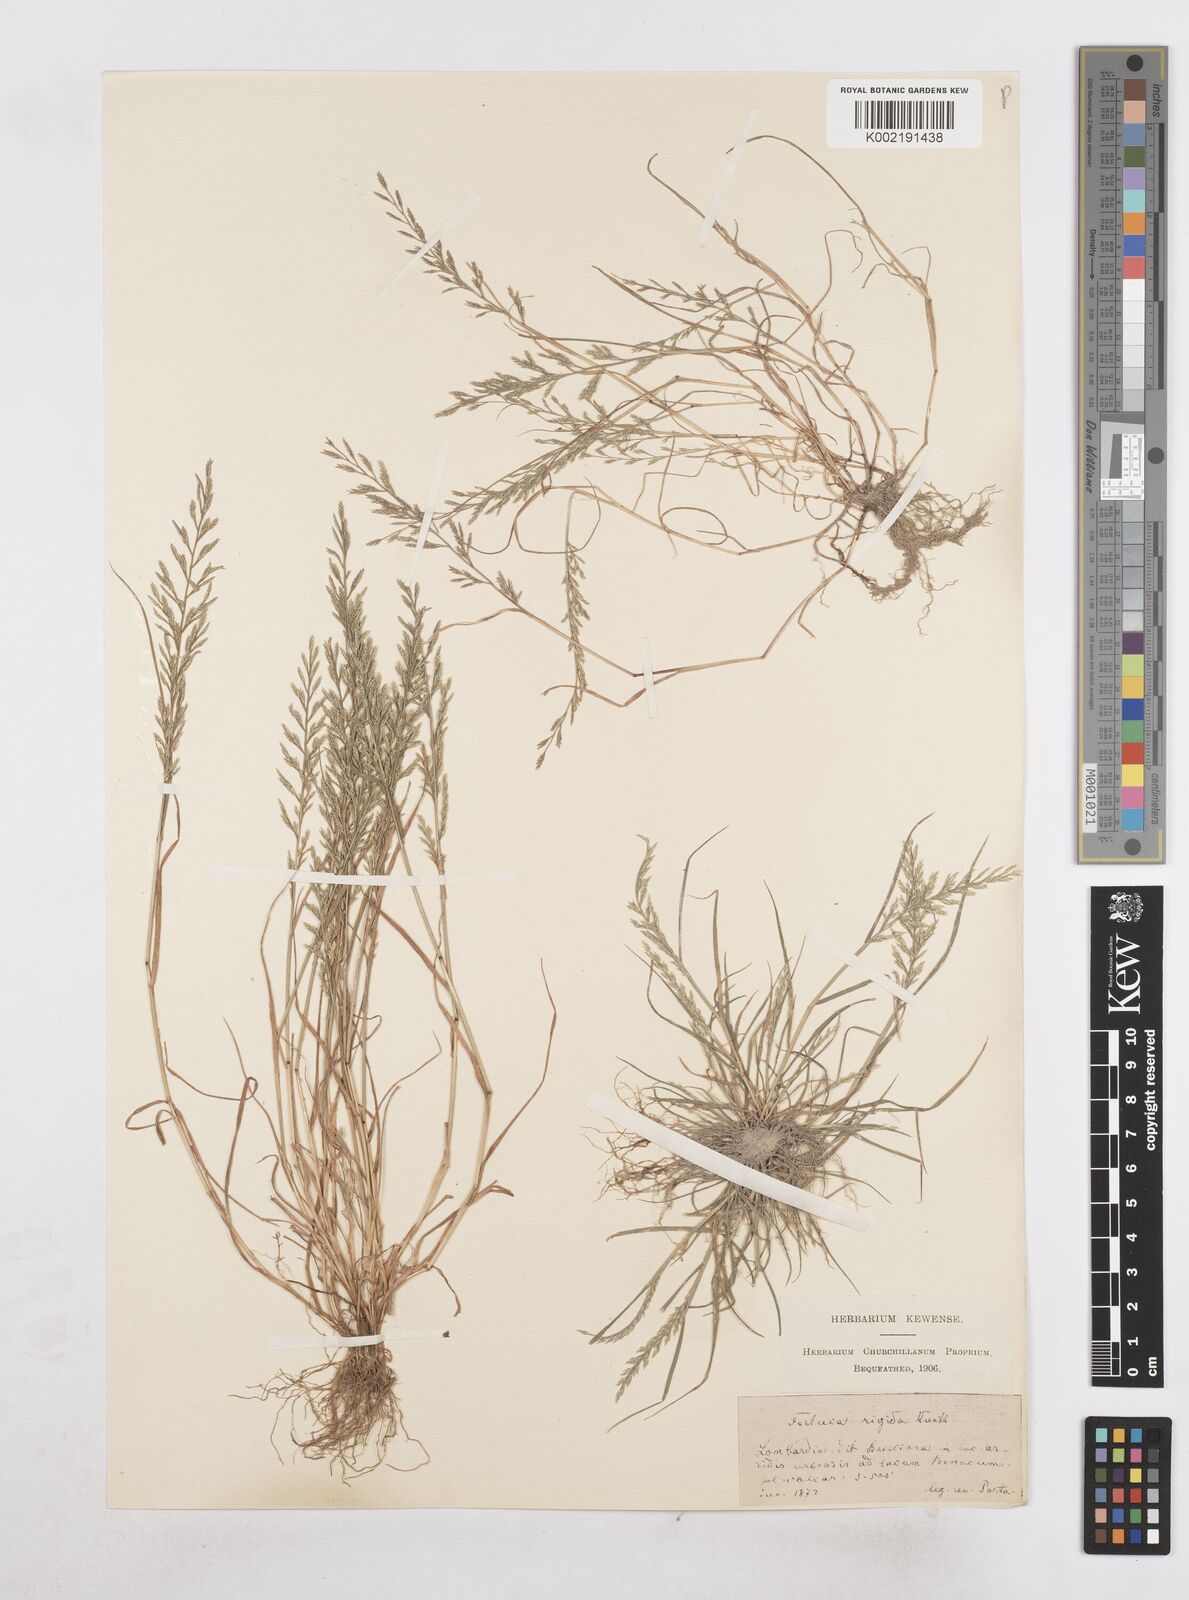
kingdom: Plantae
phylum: Tracheophyta
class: Liliopsida
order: Poales
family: Poaceae
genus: Catapodium
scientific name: Catapodium rigidum
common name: Fern-grass
